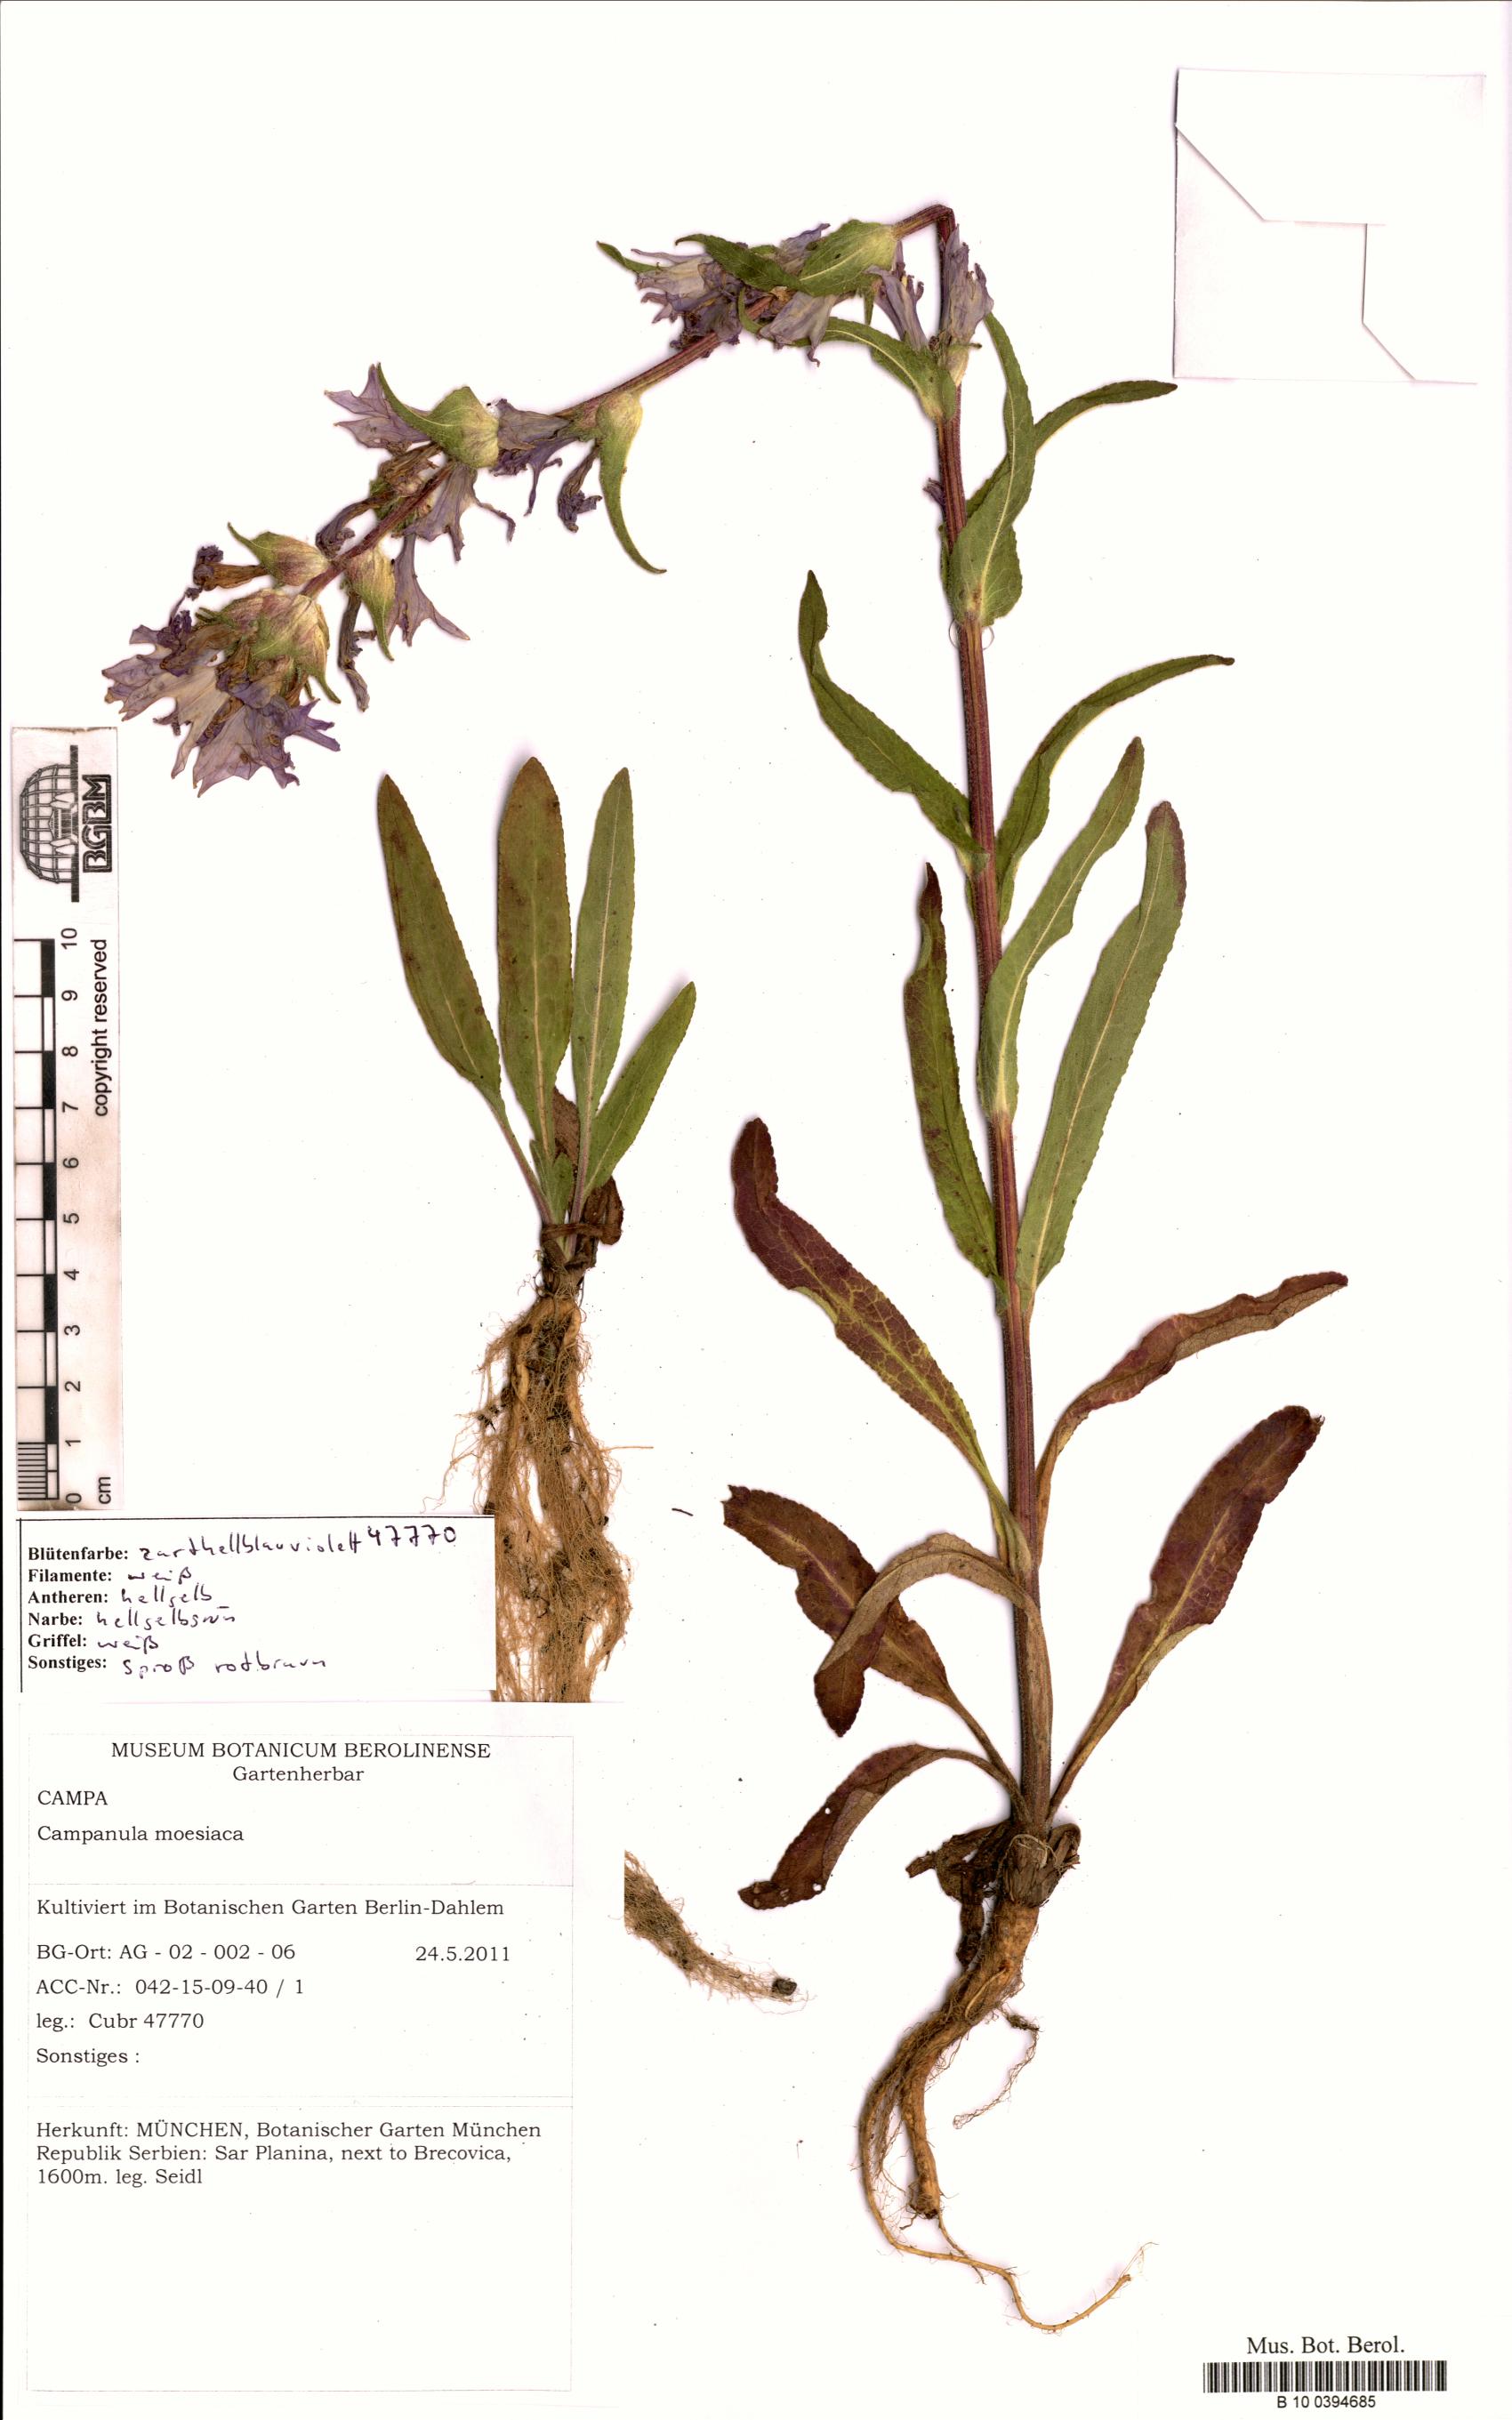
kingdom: Plantae
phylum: Tracheophyta
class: Magnoliopsida
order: Asterales
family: Campanulaceae
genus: Campanula
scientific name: Campanula moesiaca
